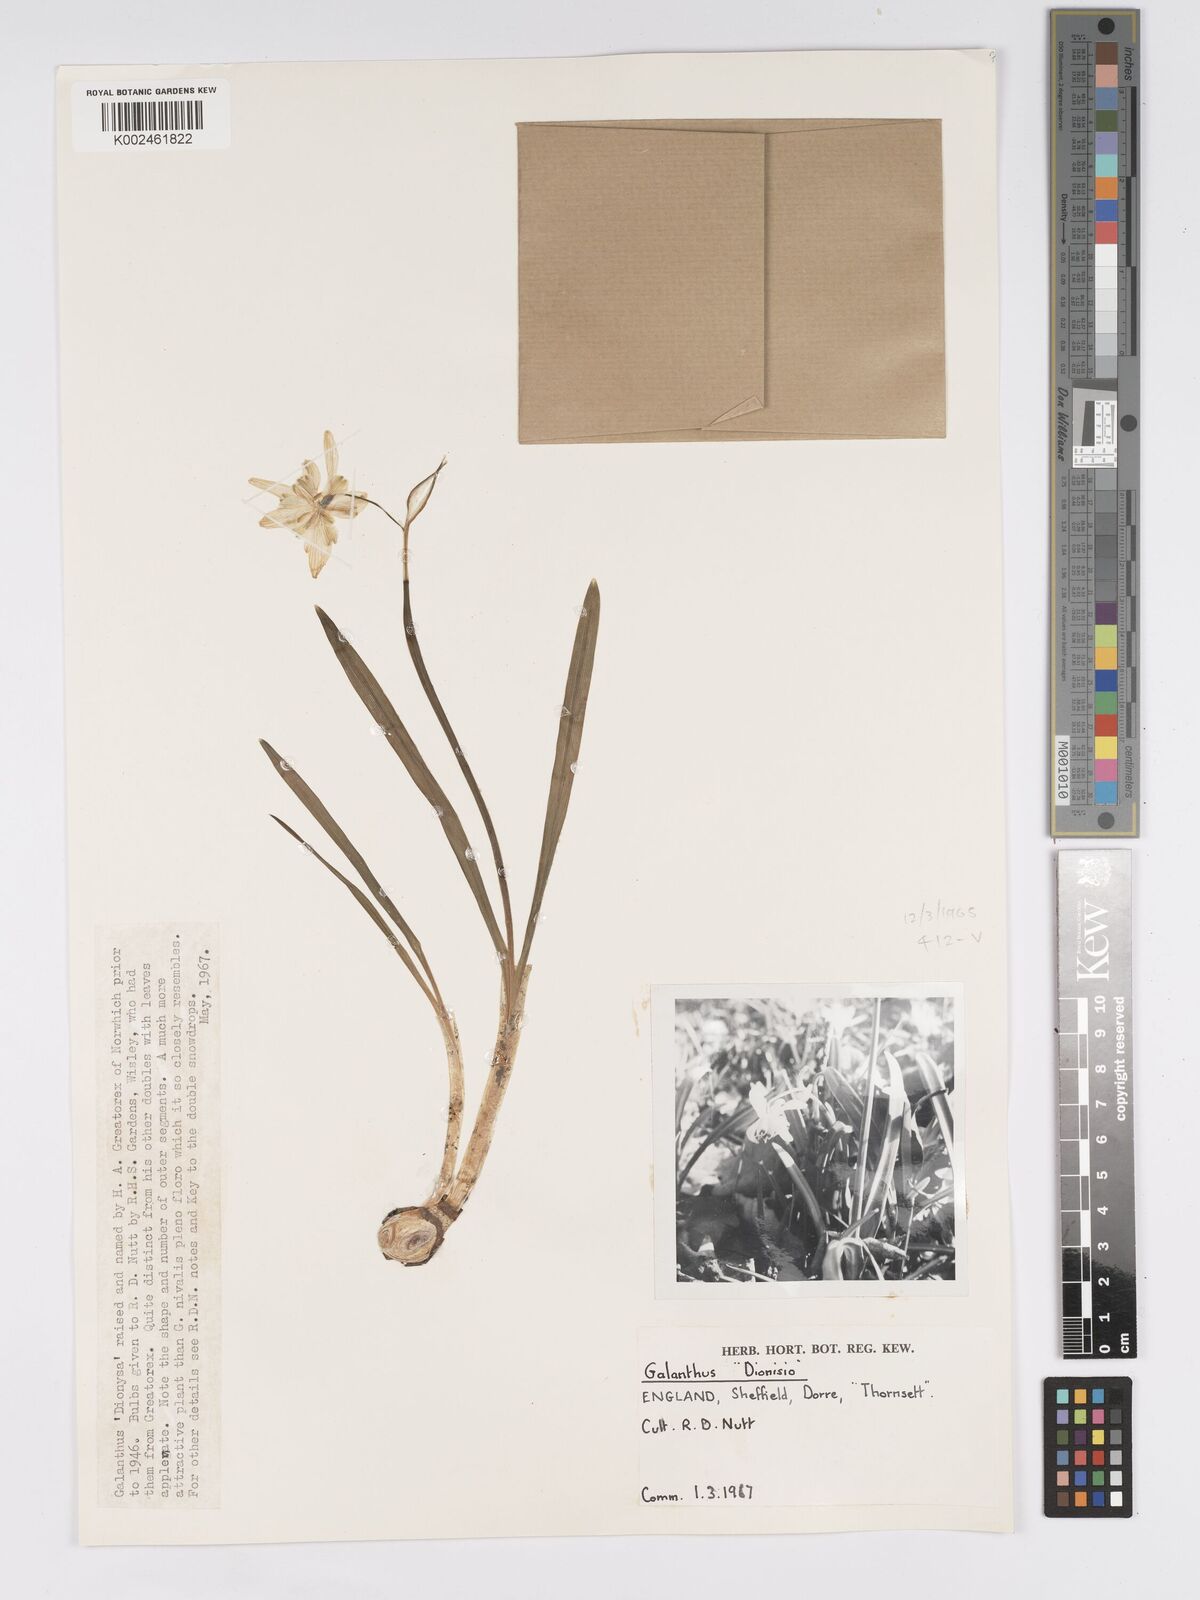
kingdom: Plantae
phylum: Tracheophyta
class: Liliopsida
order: Asparagales
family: Amaryllidaceae
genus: Galanthus
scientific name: Galanthus
